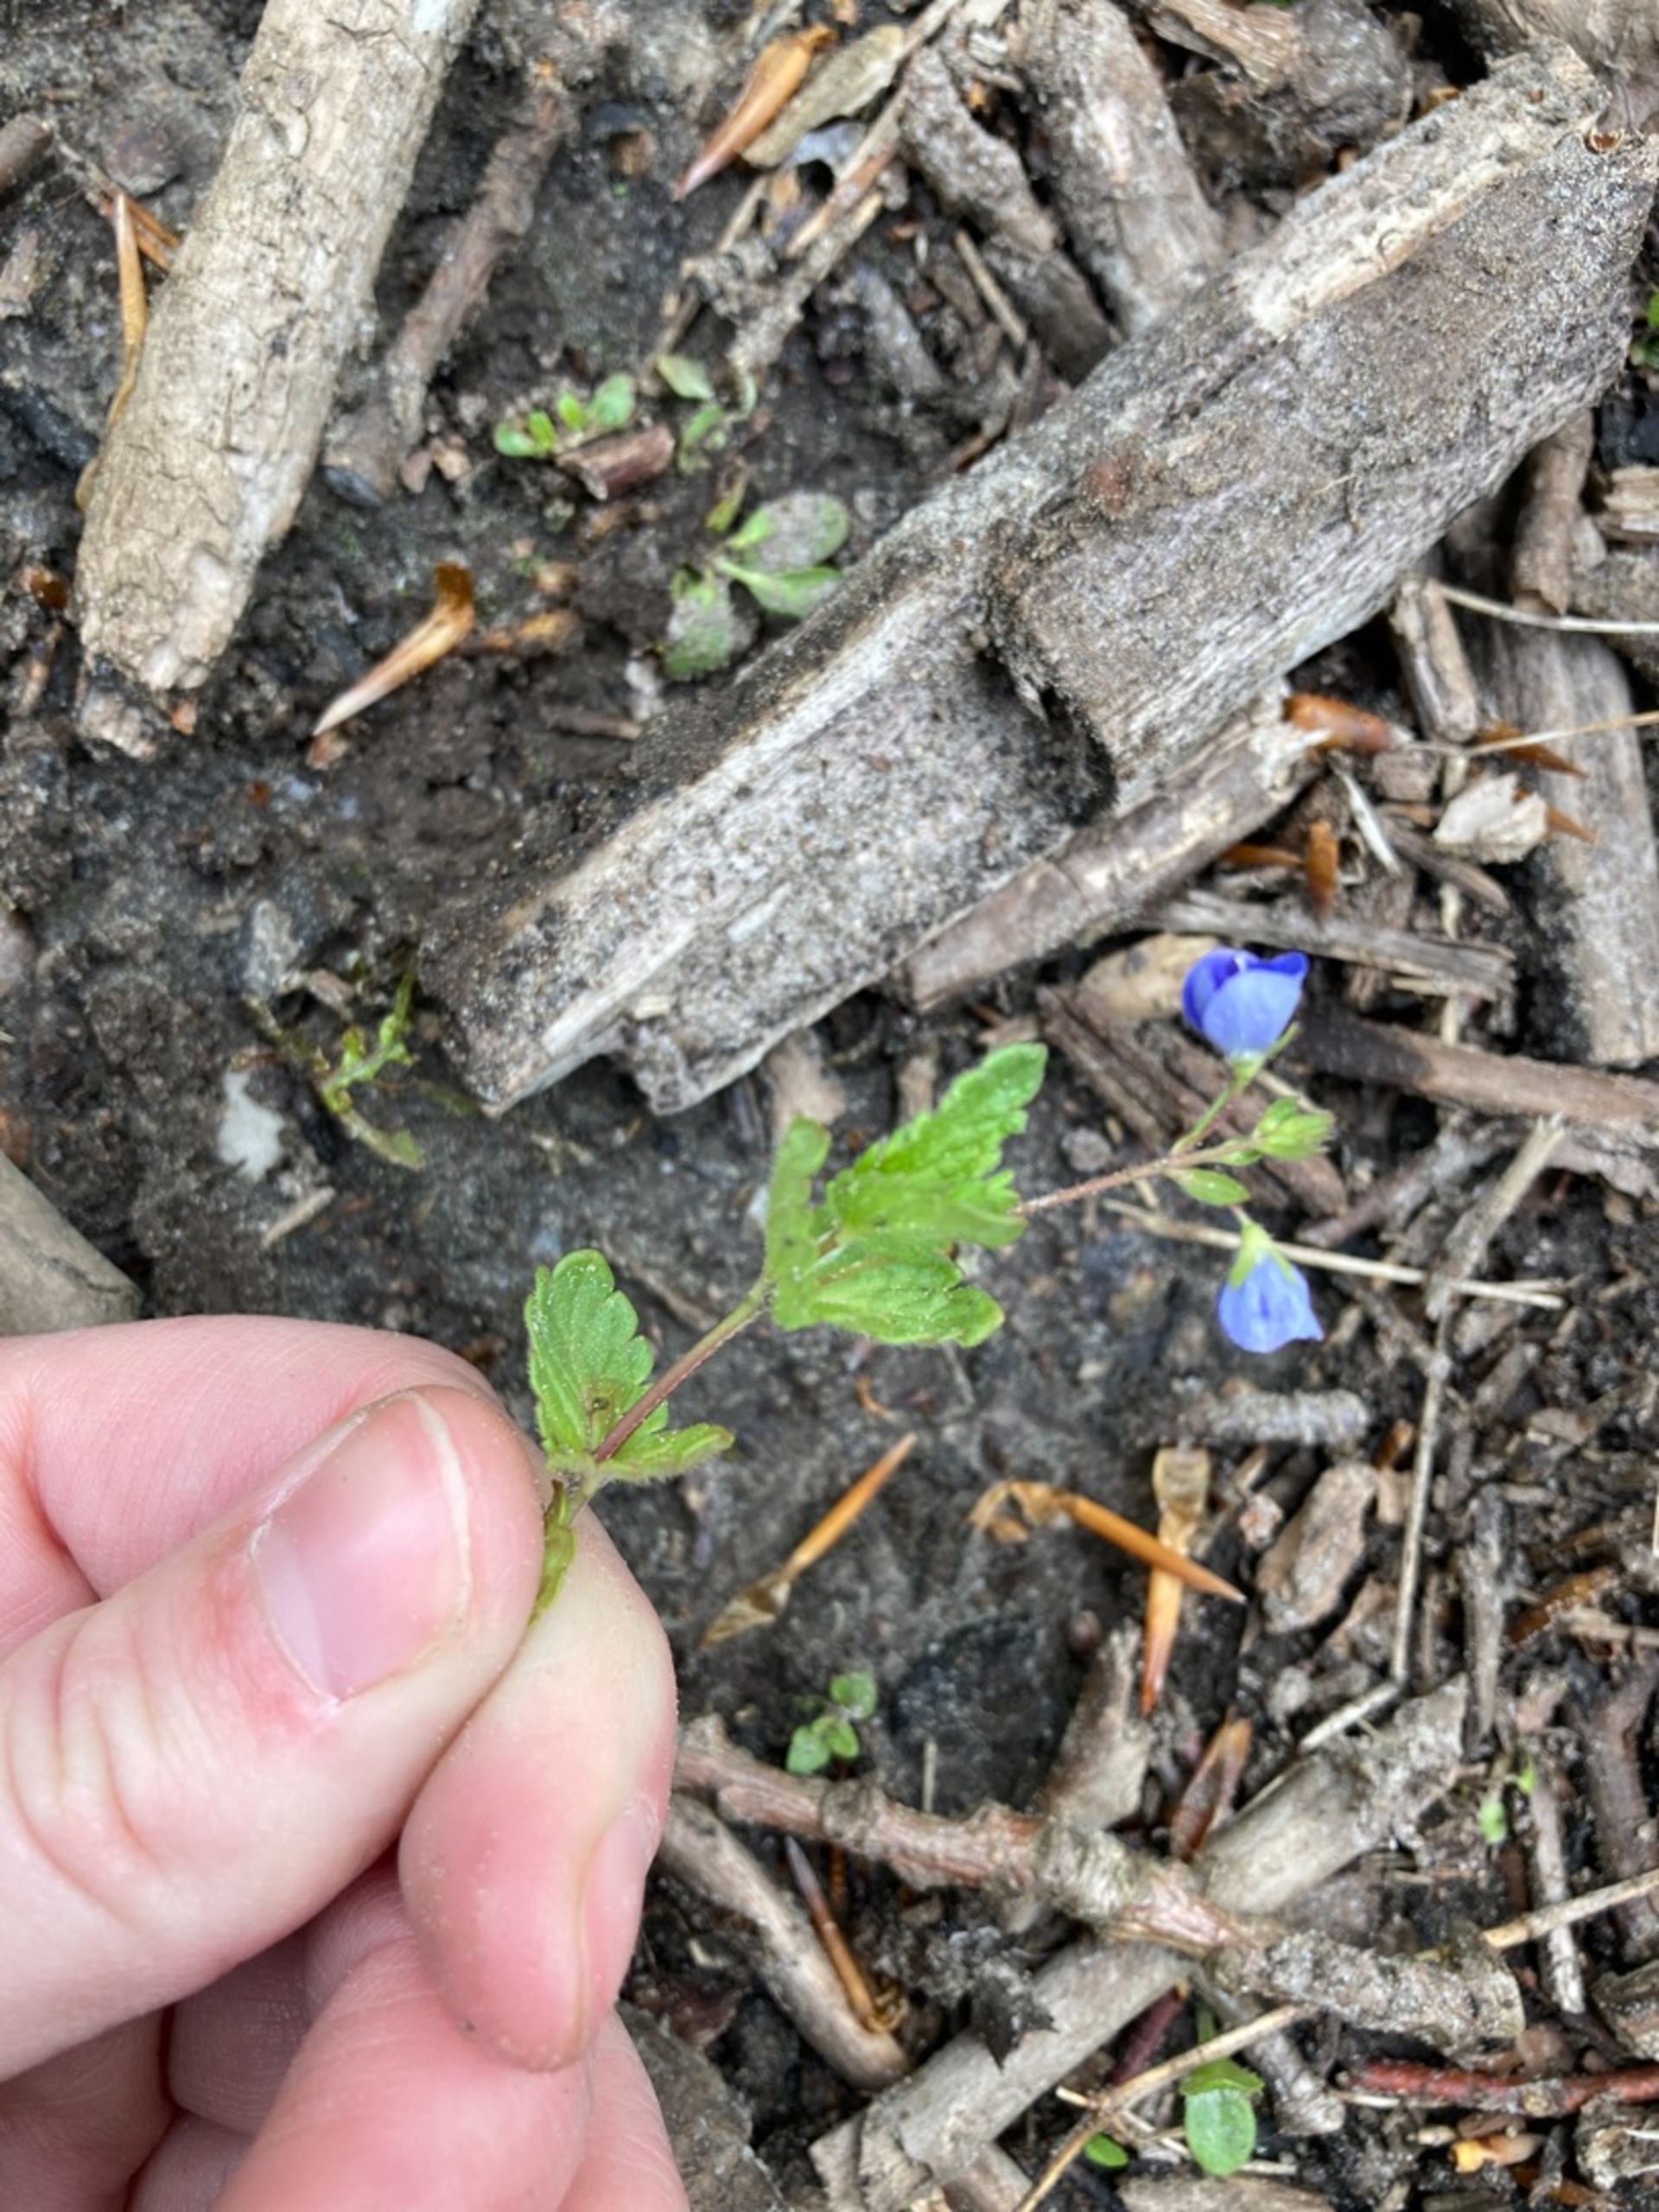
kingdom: Plantae
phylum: Tracheophyta
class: Magnoliopsida
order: Lamiales
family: Plantaginaceae
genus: Veronica
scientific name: Veronica chamaedrys
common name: Tveskægget ærenpris
